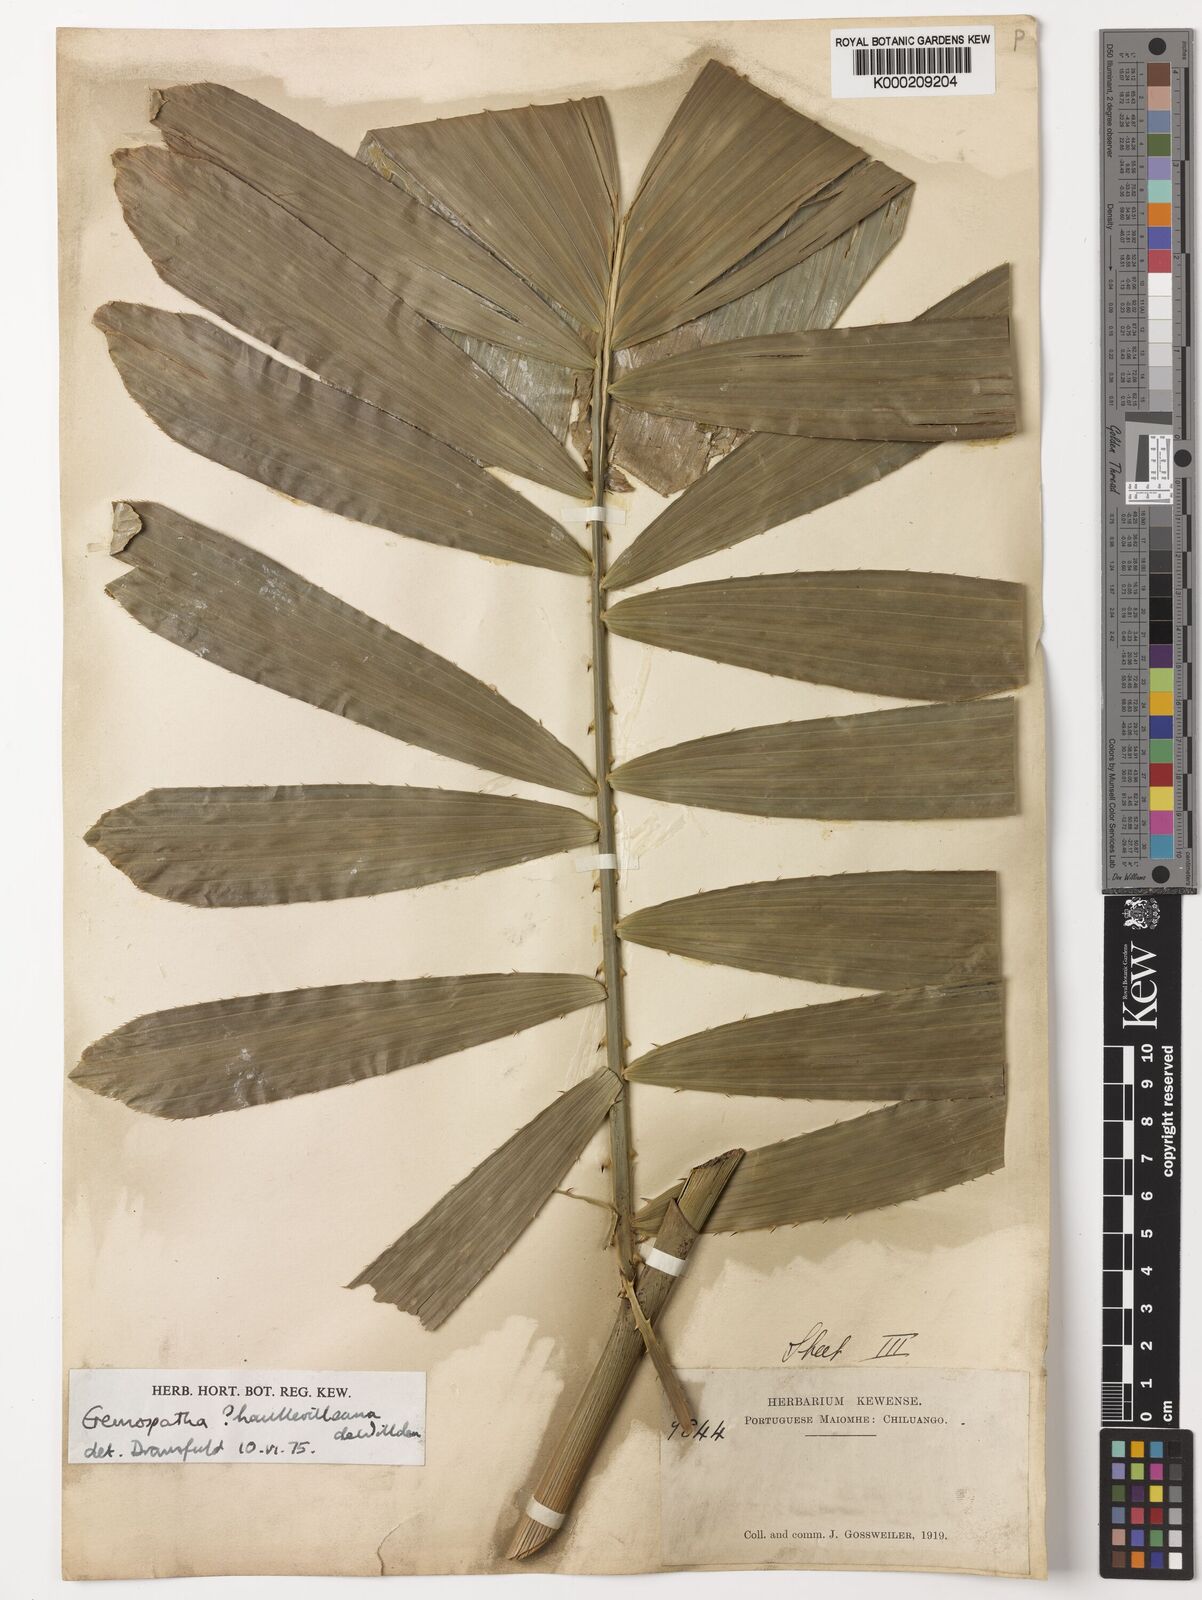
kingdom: Plantae
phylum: Tracheophyta
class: Liliopsida
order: Arecales
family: Arecaceae
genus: Eremospatha
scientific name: Eremospatha haullevilleana
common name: Rattan
